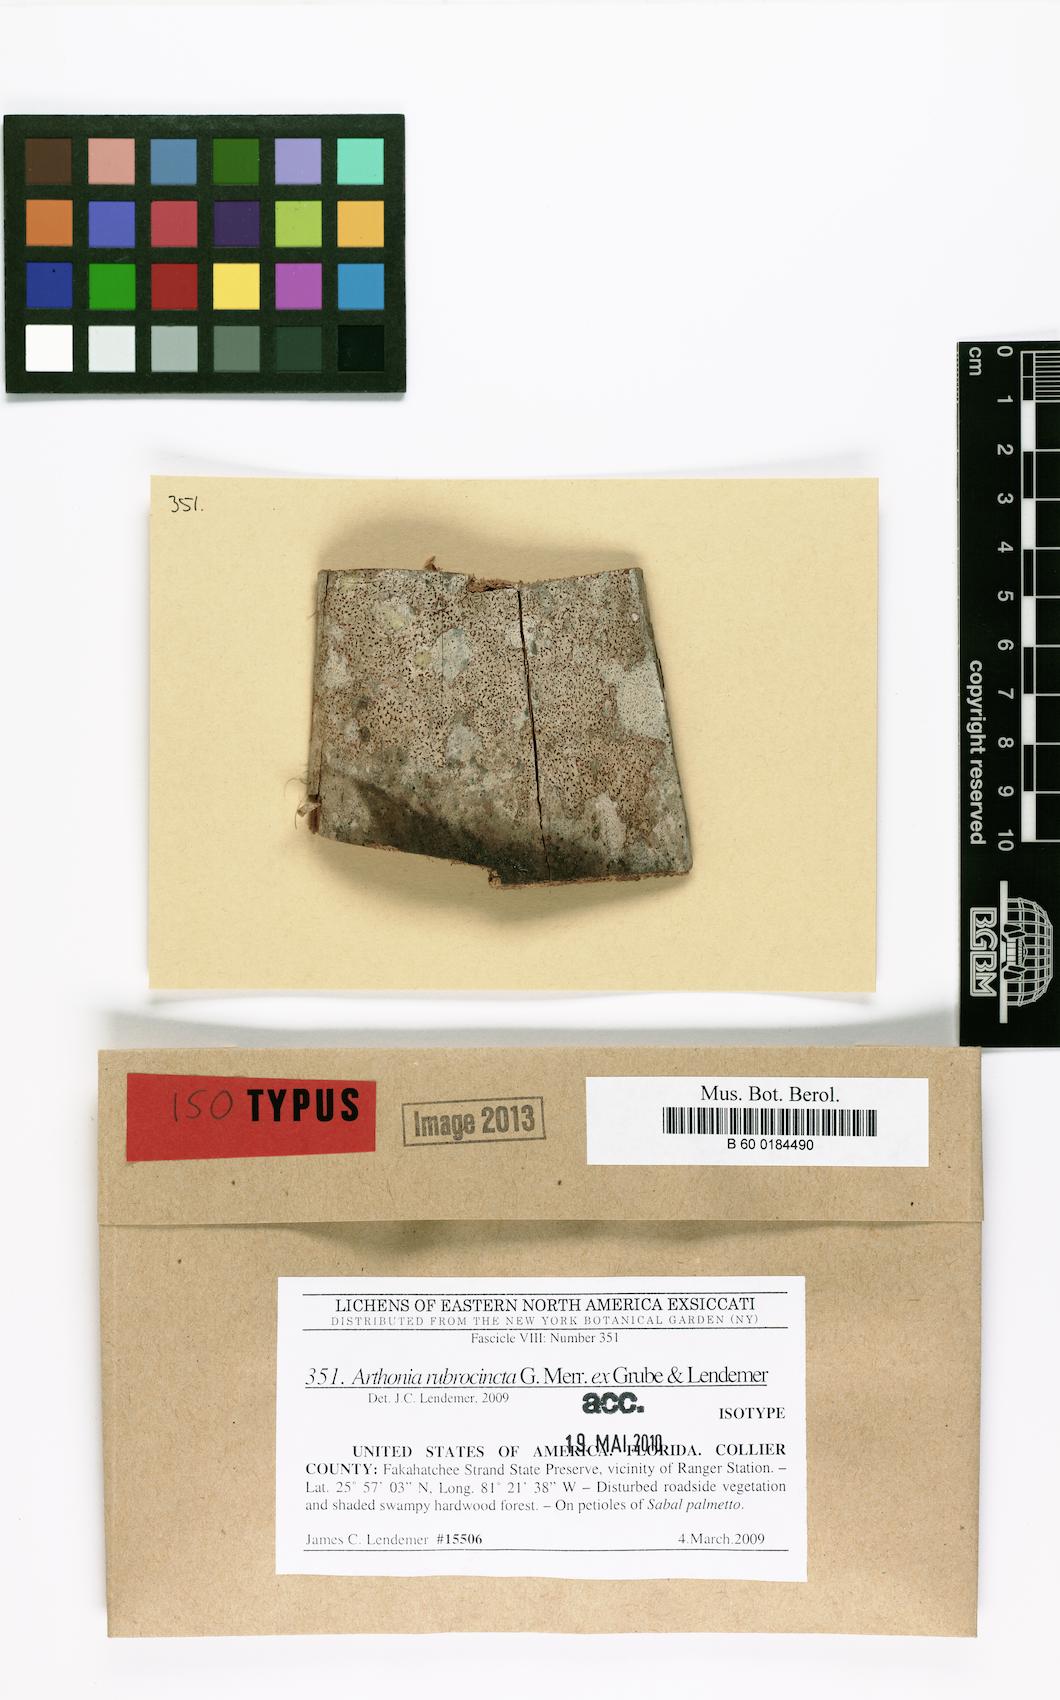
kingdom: Fungi
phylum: Ascomycota
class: Arthoniomycetes
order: Arthoniales
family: Arthoniaceae
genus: Arthonia
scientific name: Arthonia rubrocincta
